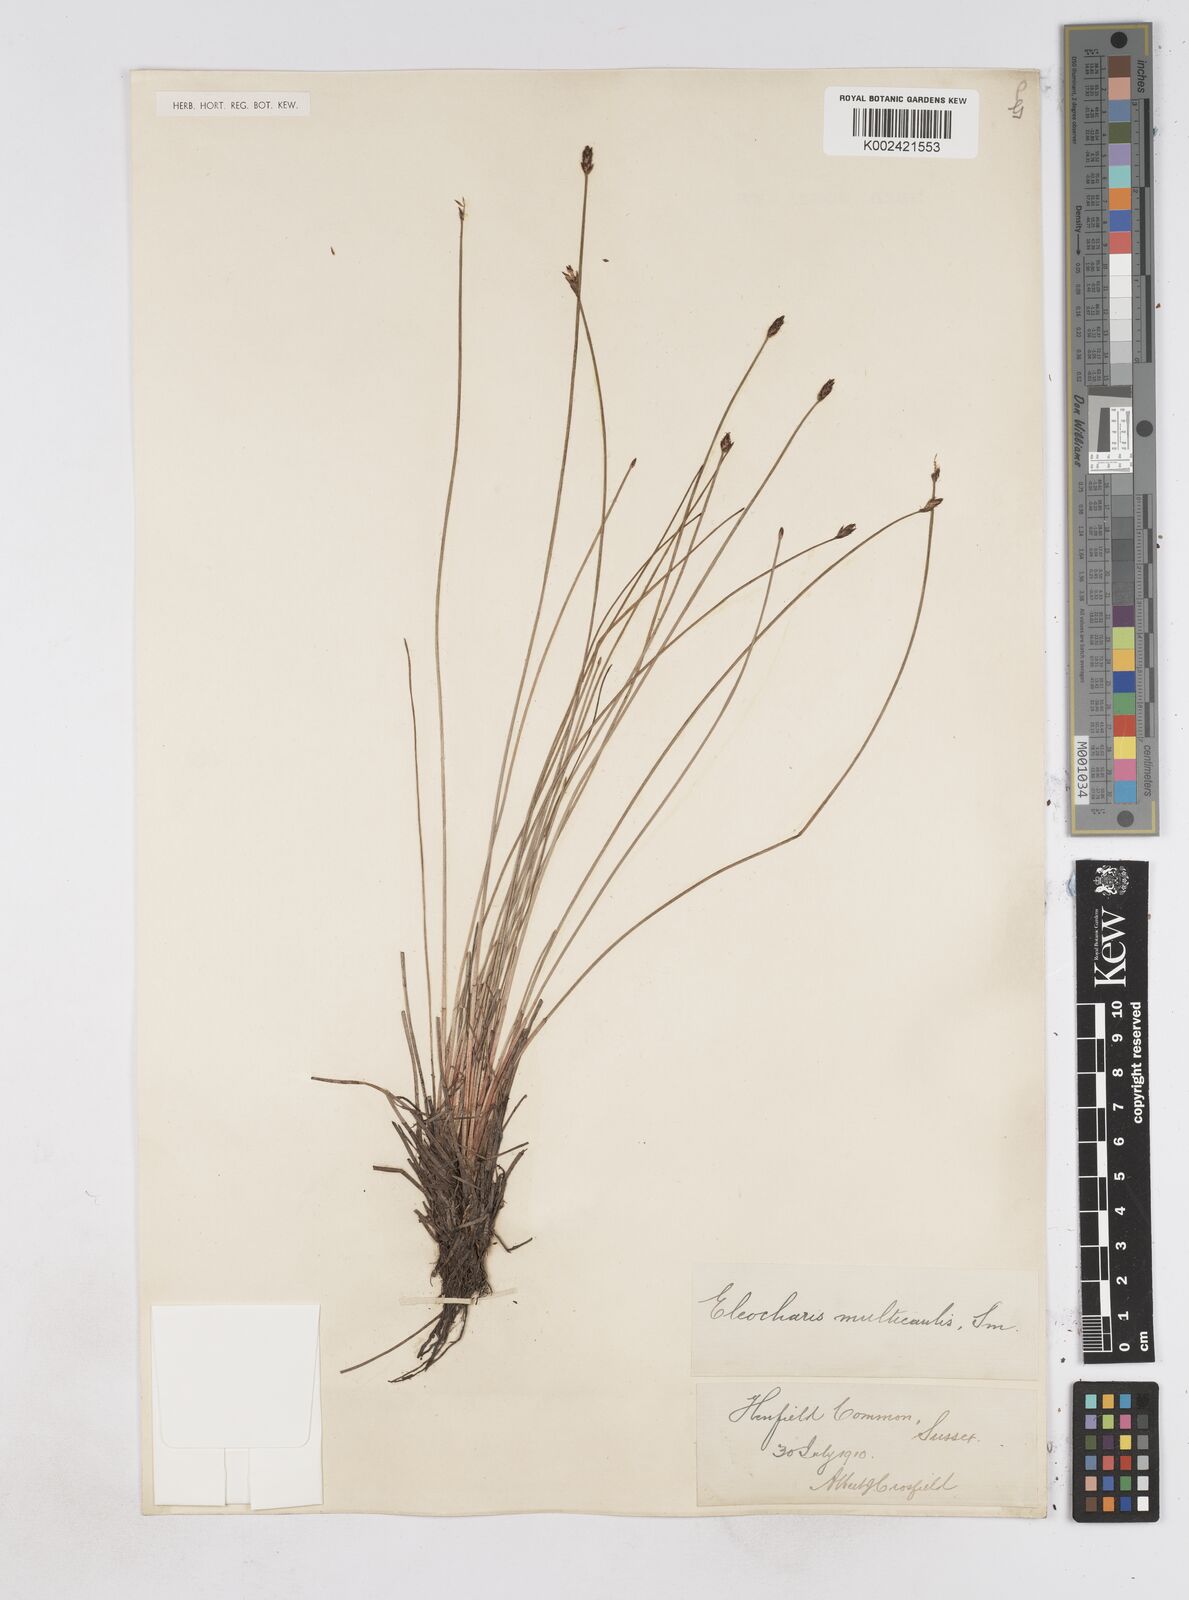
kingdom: Plantae
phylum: Tracheophyta
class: Liliopsida
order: Poales
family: Cyperaceae
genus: Eleocharis
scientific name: Eleocharis multicaulis
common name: Many-stalked spike-rush
